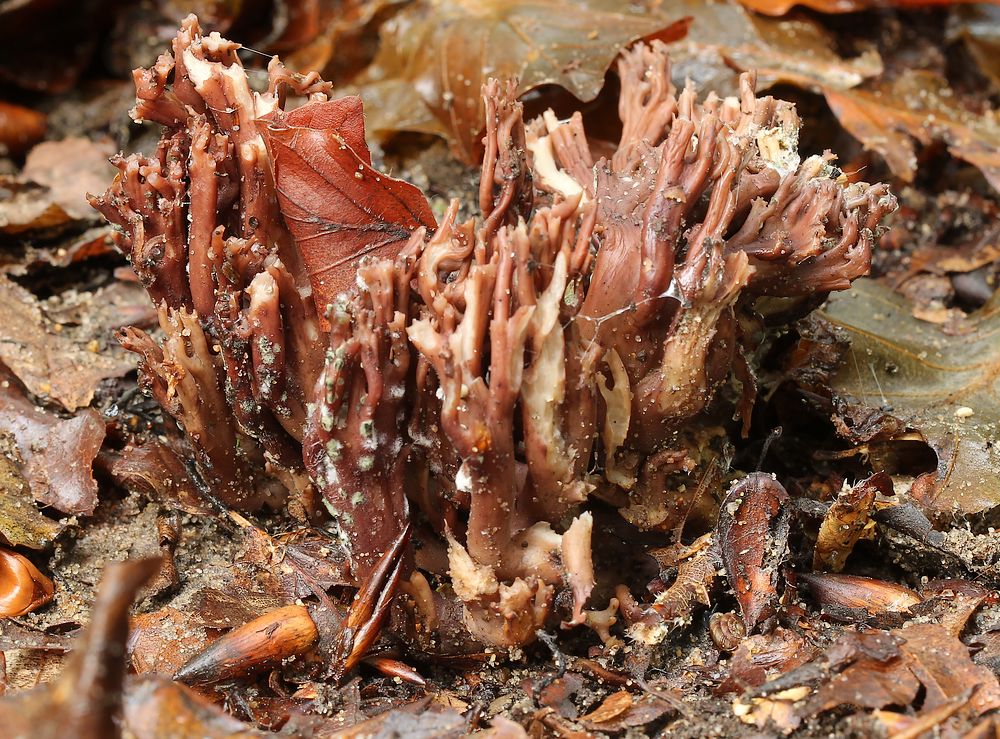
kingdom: Fungi
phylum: Basidiomycota
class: Agaricomycetes
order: Gomphales
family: Gomphaceae
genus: Ramaria
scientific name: Ramaria fumigata
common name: violet koralsvamp
